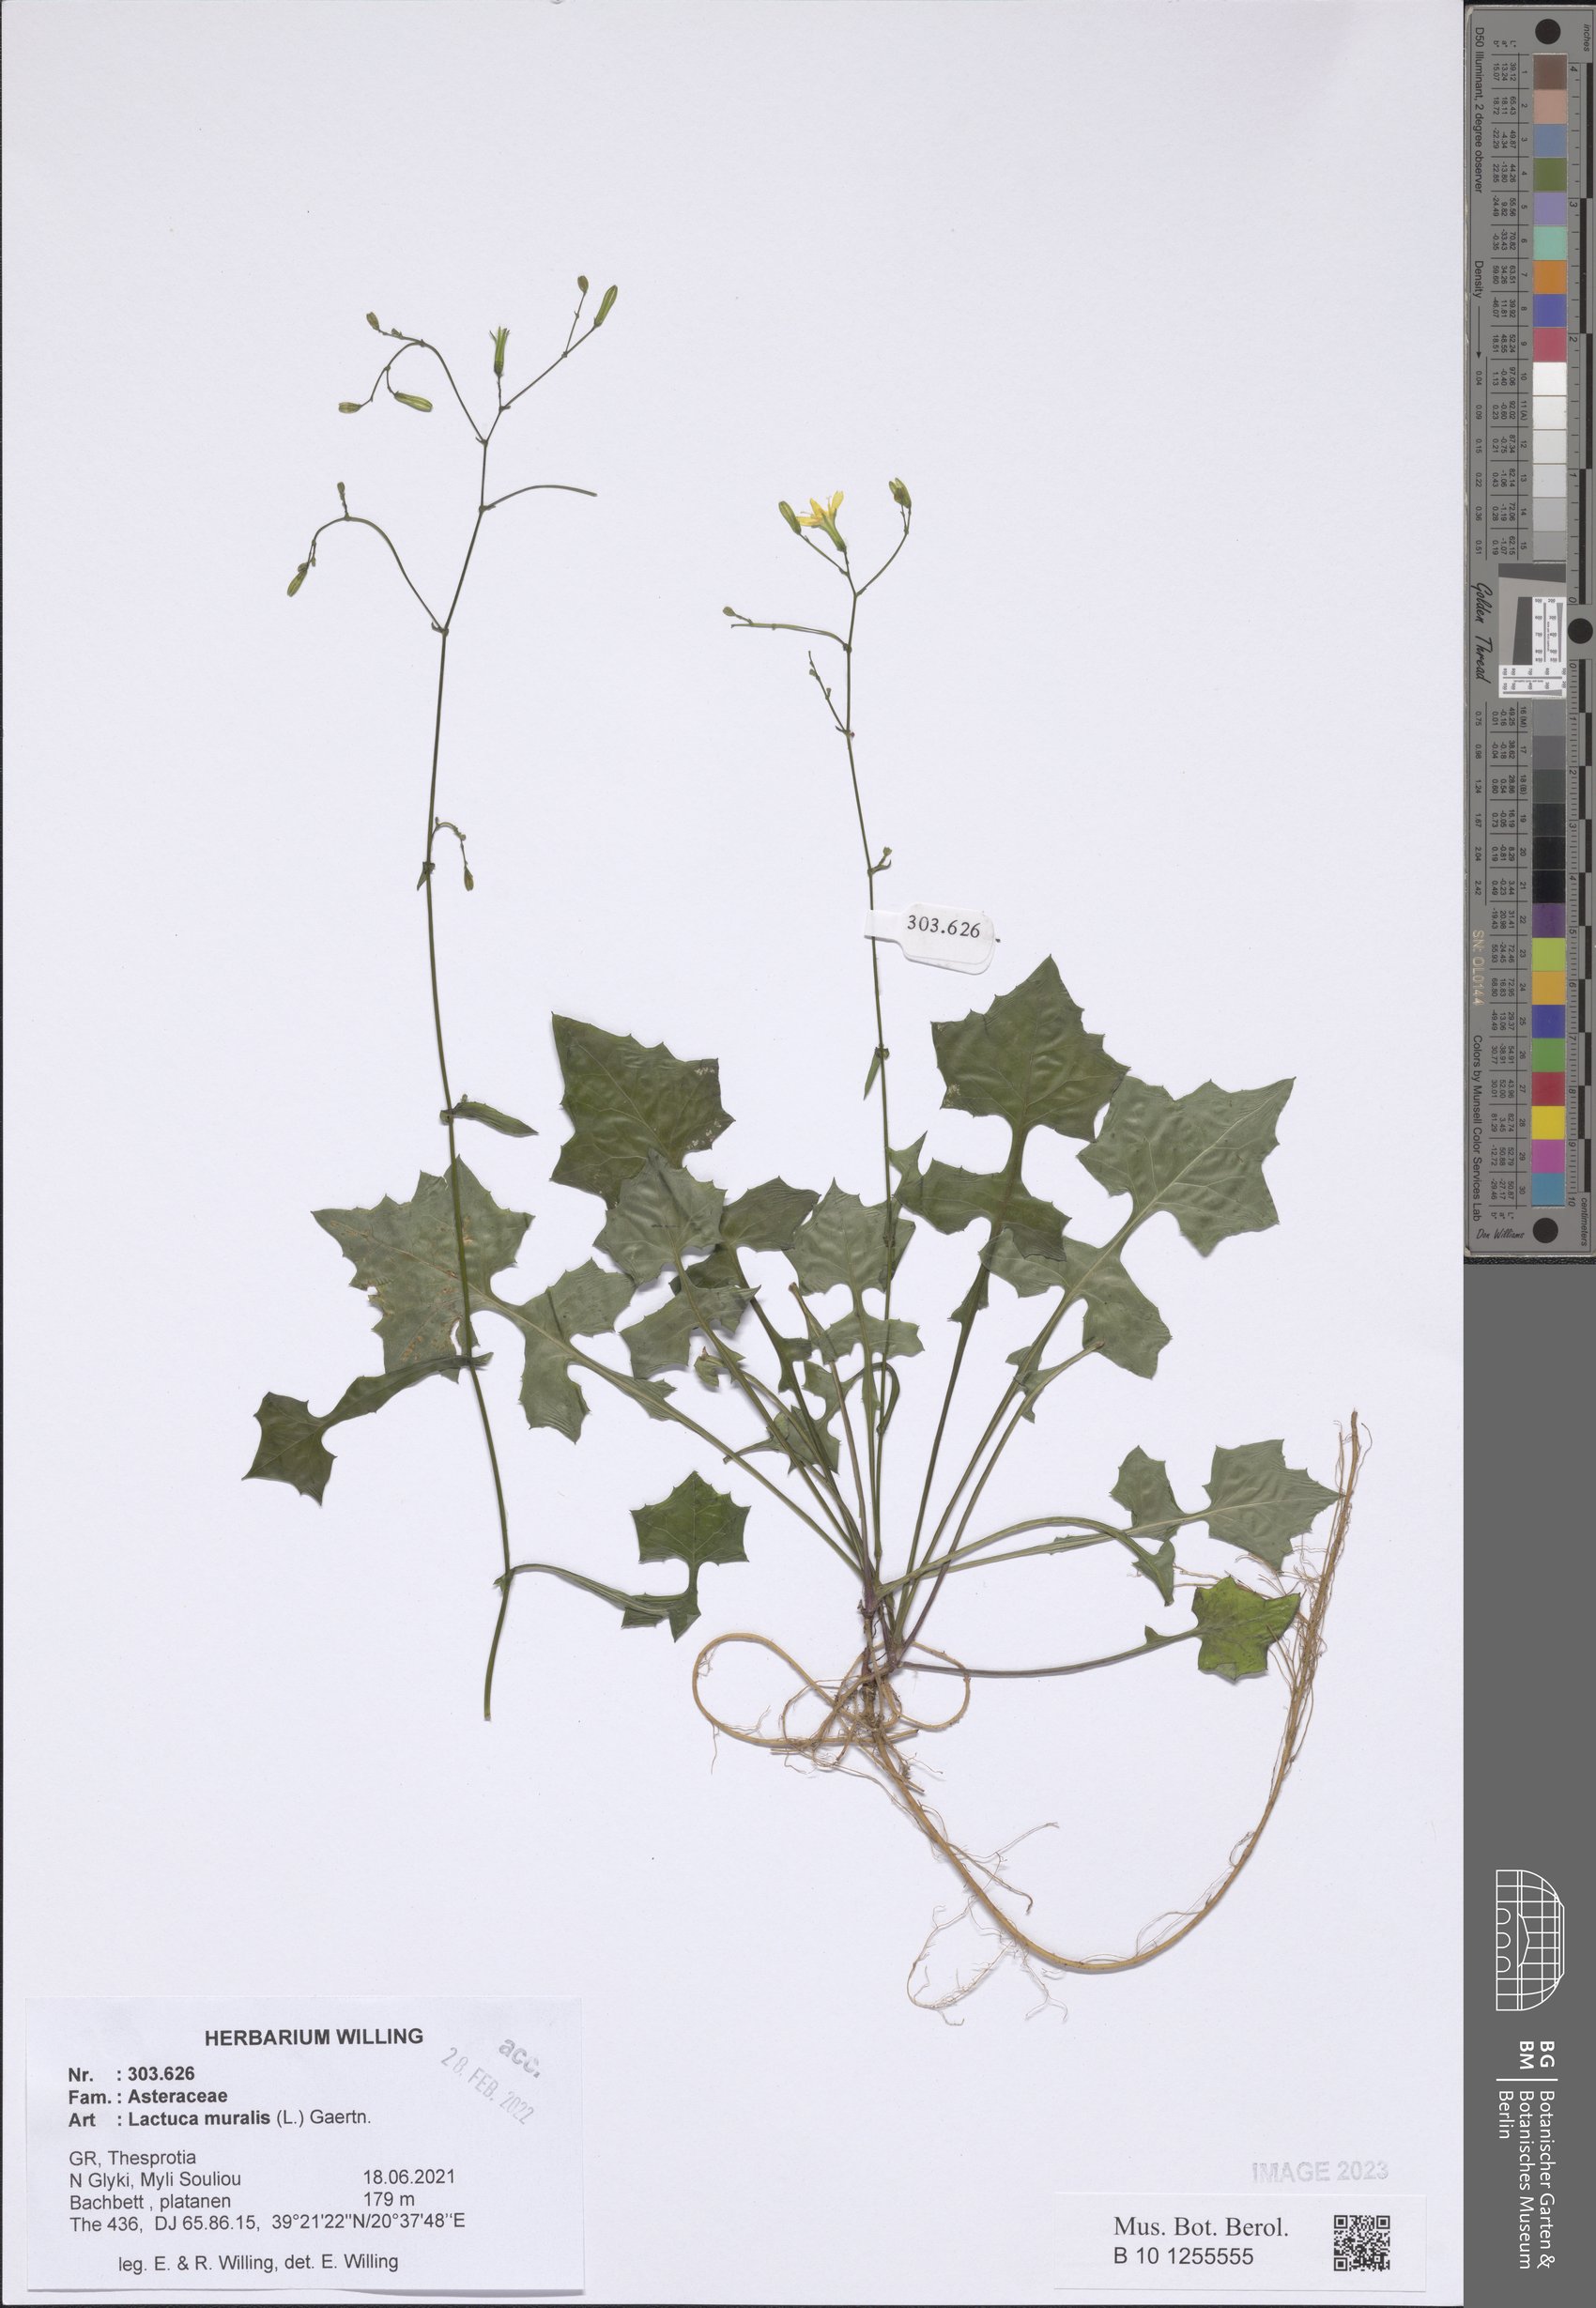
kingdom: Plantae
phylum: Tracheophyta
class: Magnoliopsida
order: Asterales
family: Asteraceae
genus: Mycelis
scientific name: Mycelis muralis
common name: Wall lettuce
